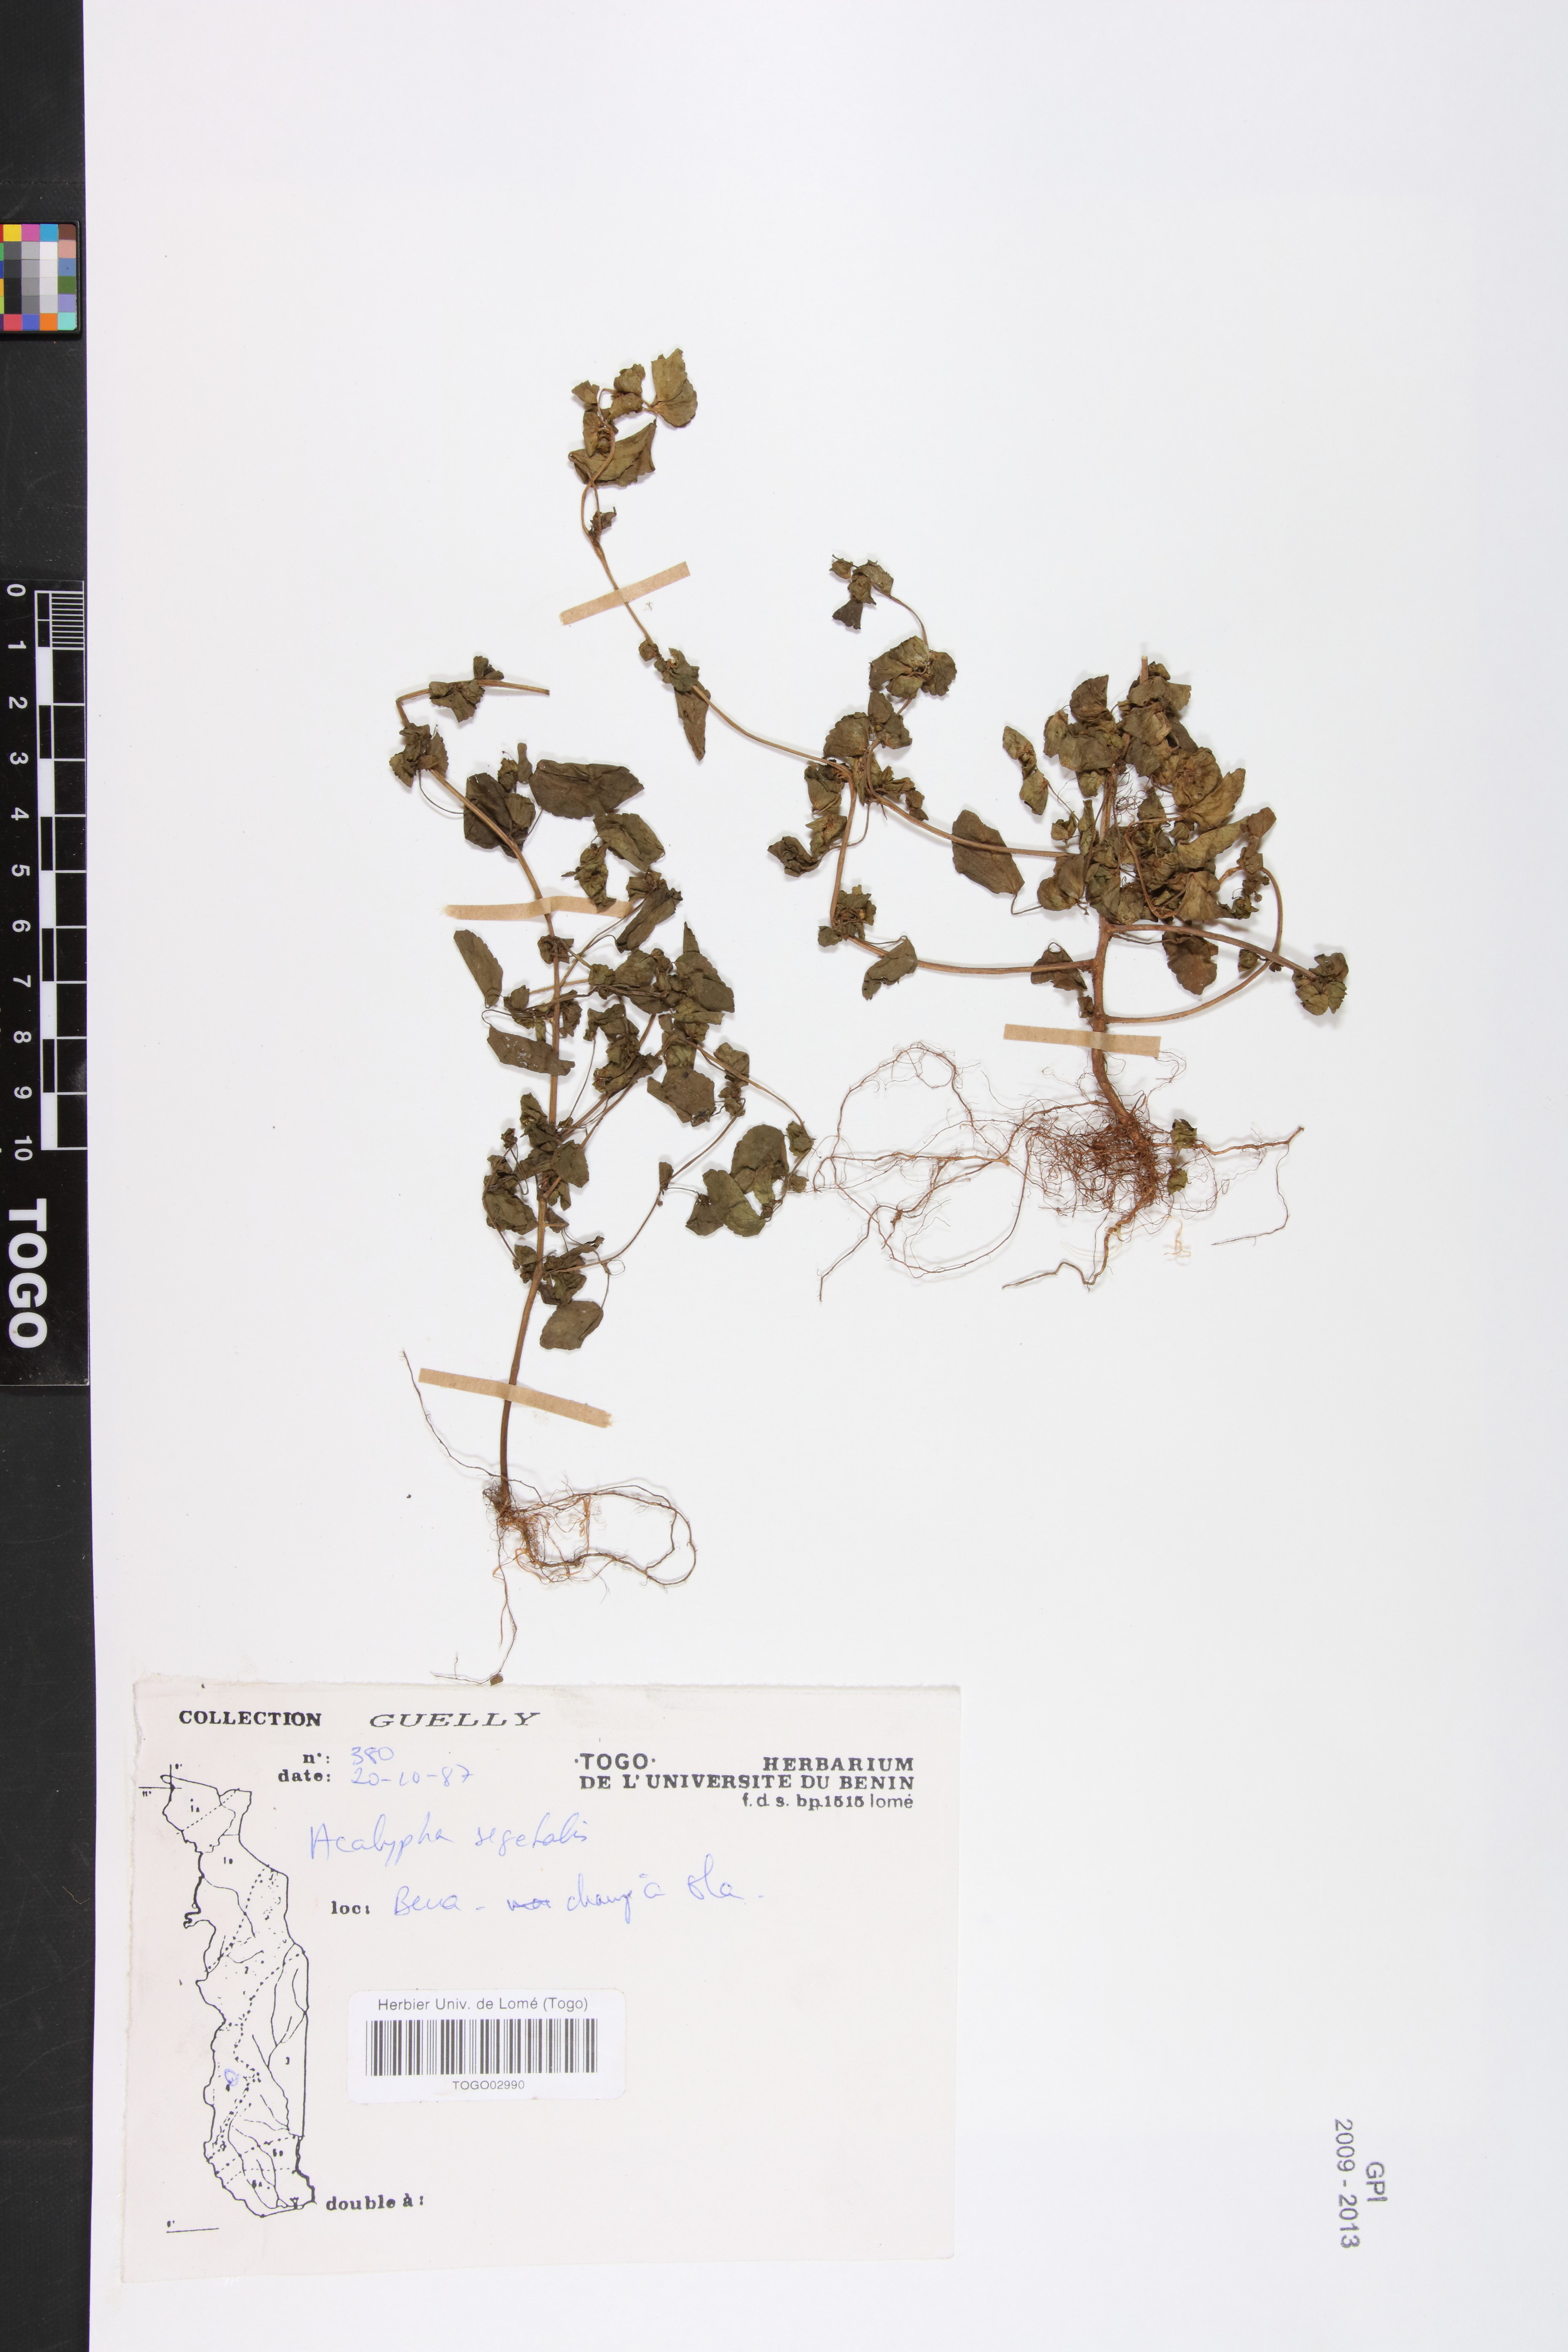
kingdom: Plantae
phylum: Tracheophyta
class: Magnoliopsida
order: Malpighiales
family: Euphorbiaceae
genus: Acalypha
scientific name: Acalypha segetalis
